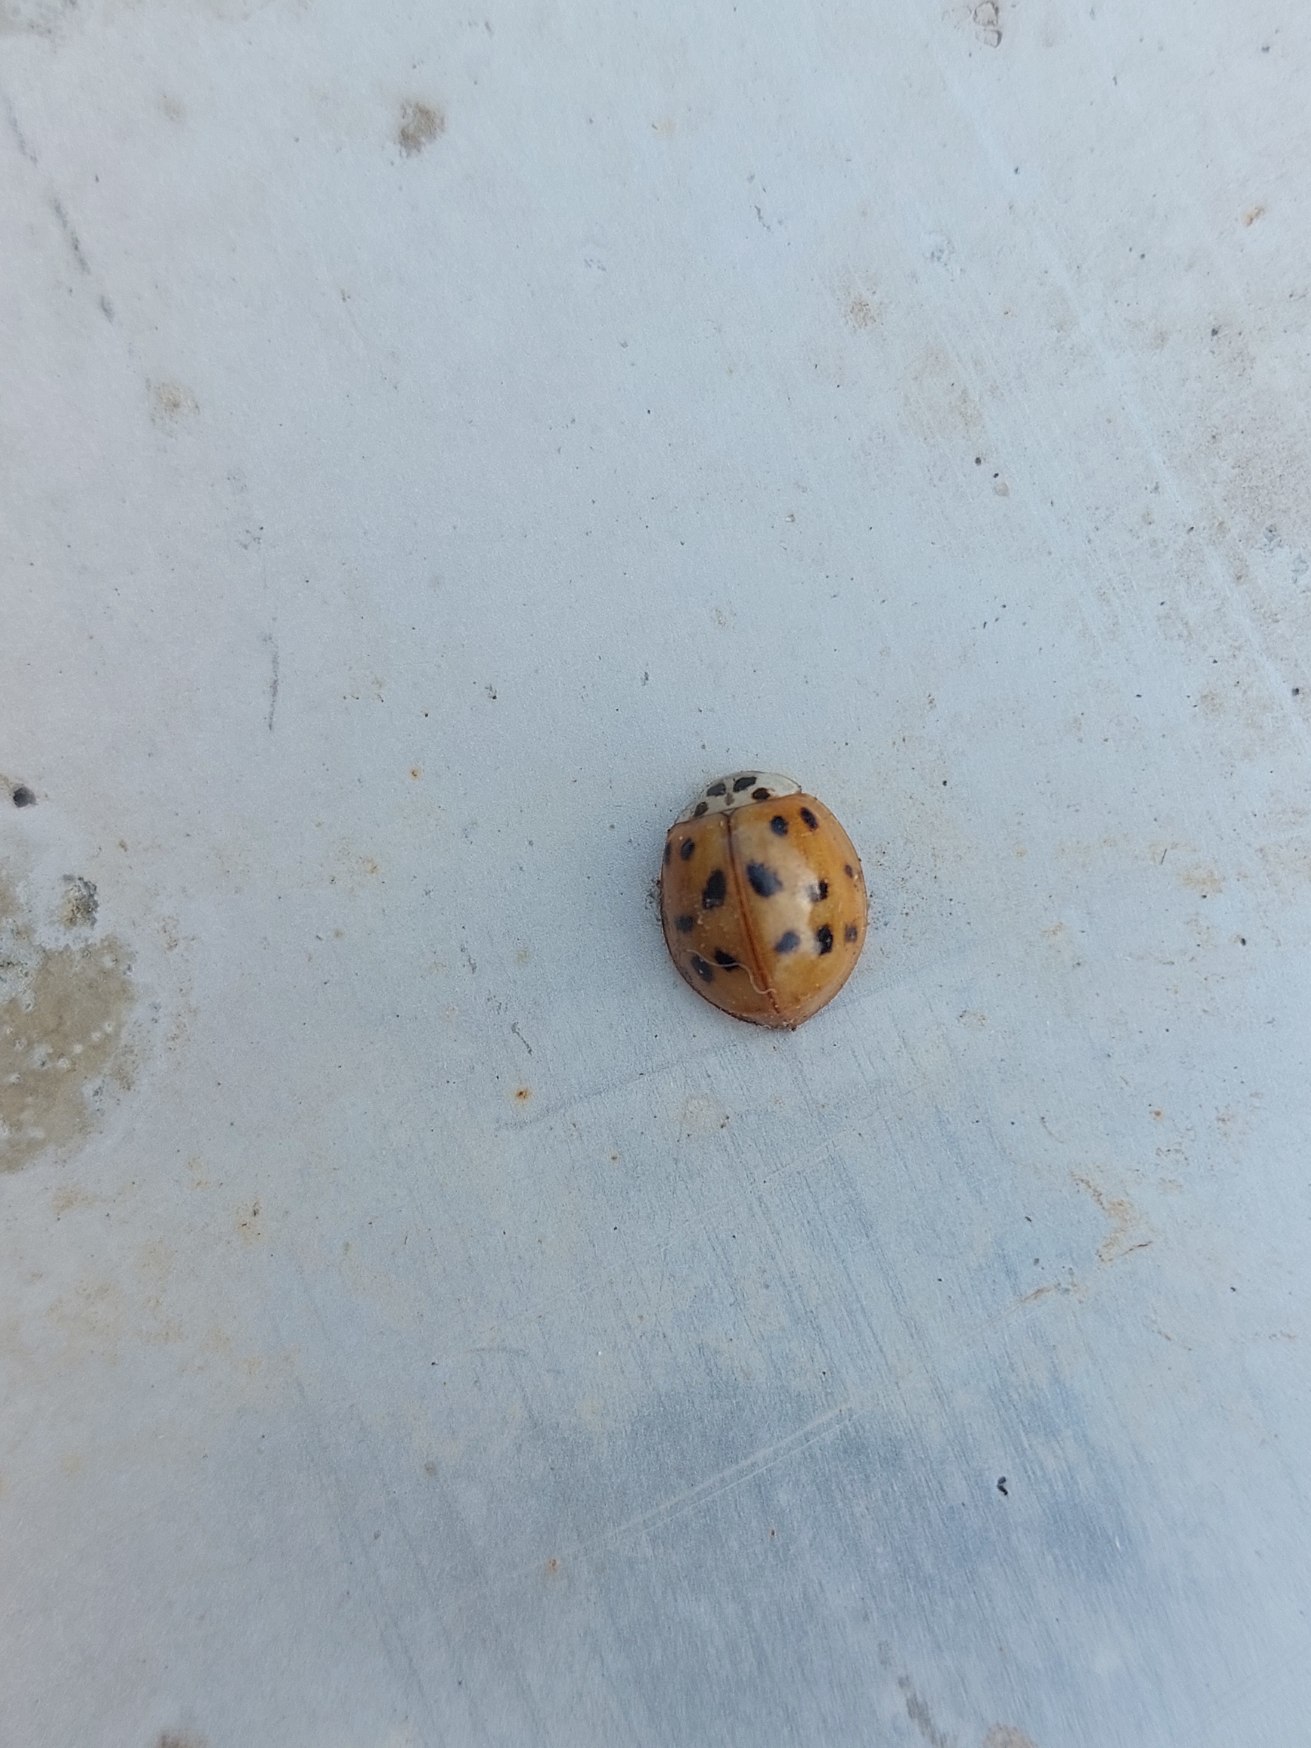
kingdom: Animalia
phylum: Arthropoda
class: Insecta
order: Coleoptera
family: Coccinellidae
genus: Harmonia
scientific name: Harmonia axyridis
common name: Harlekinmariehøne
